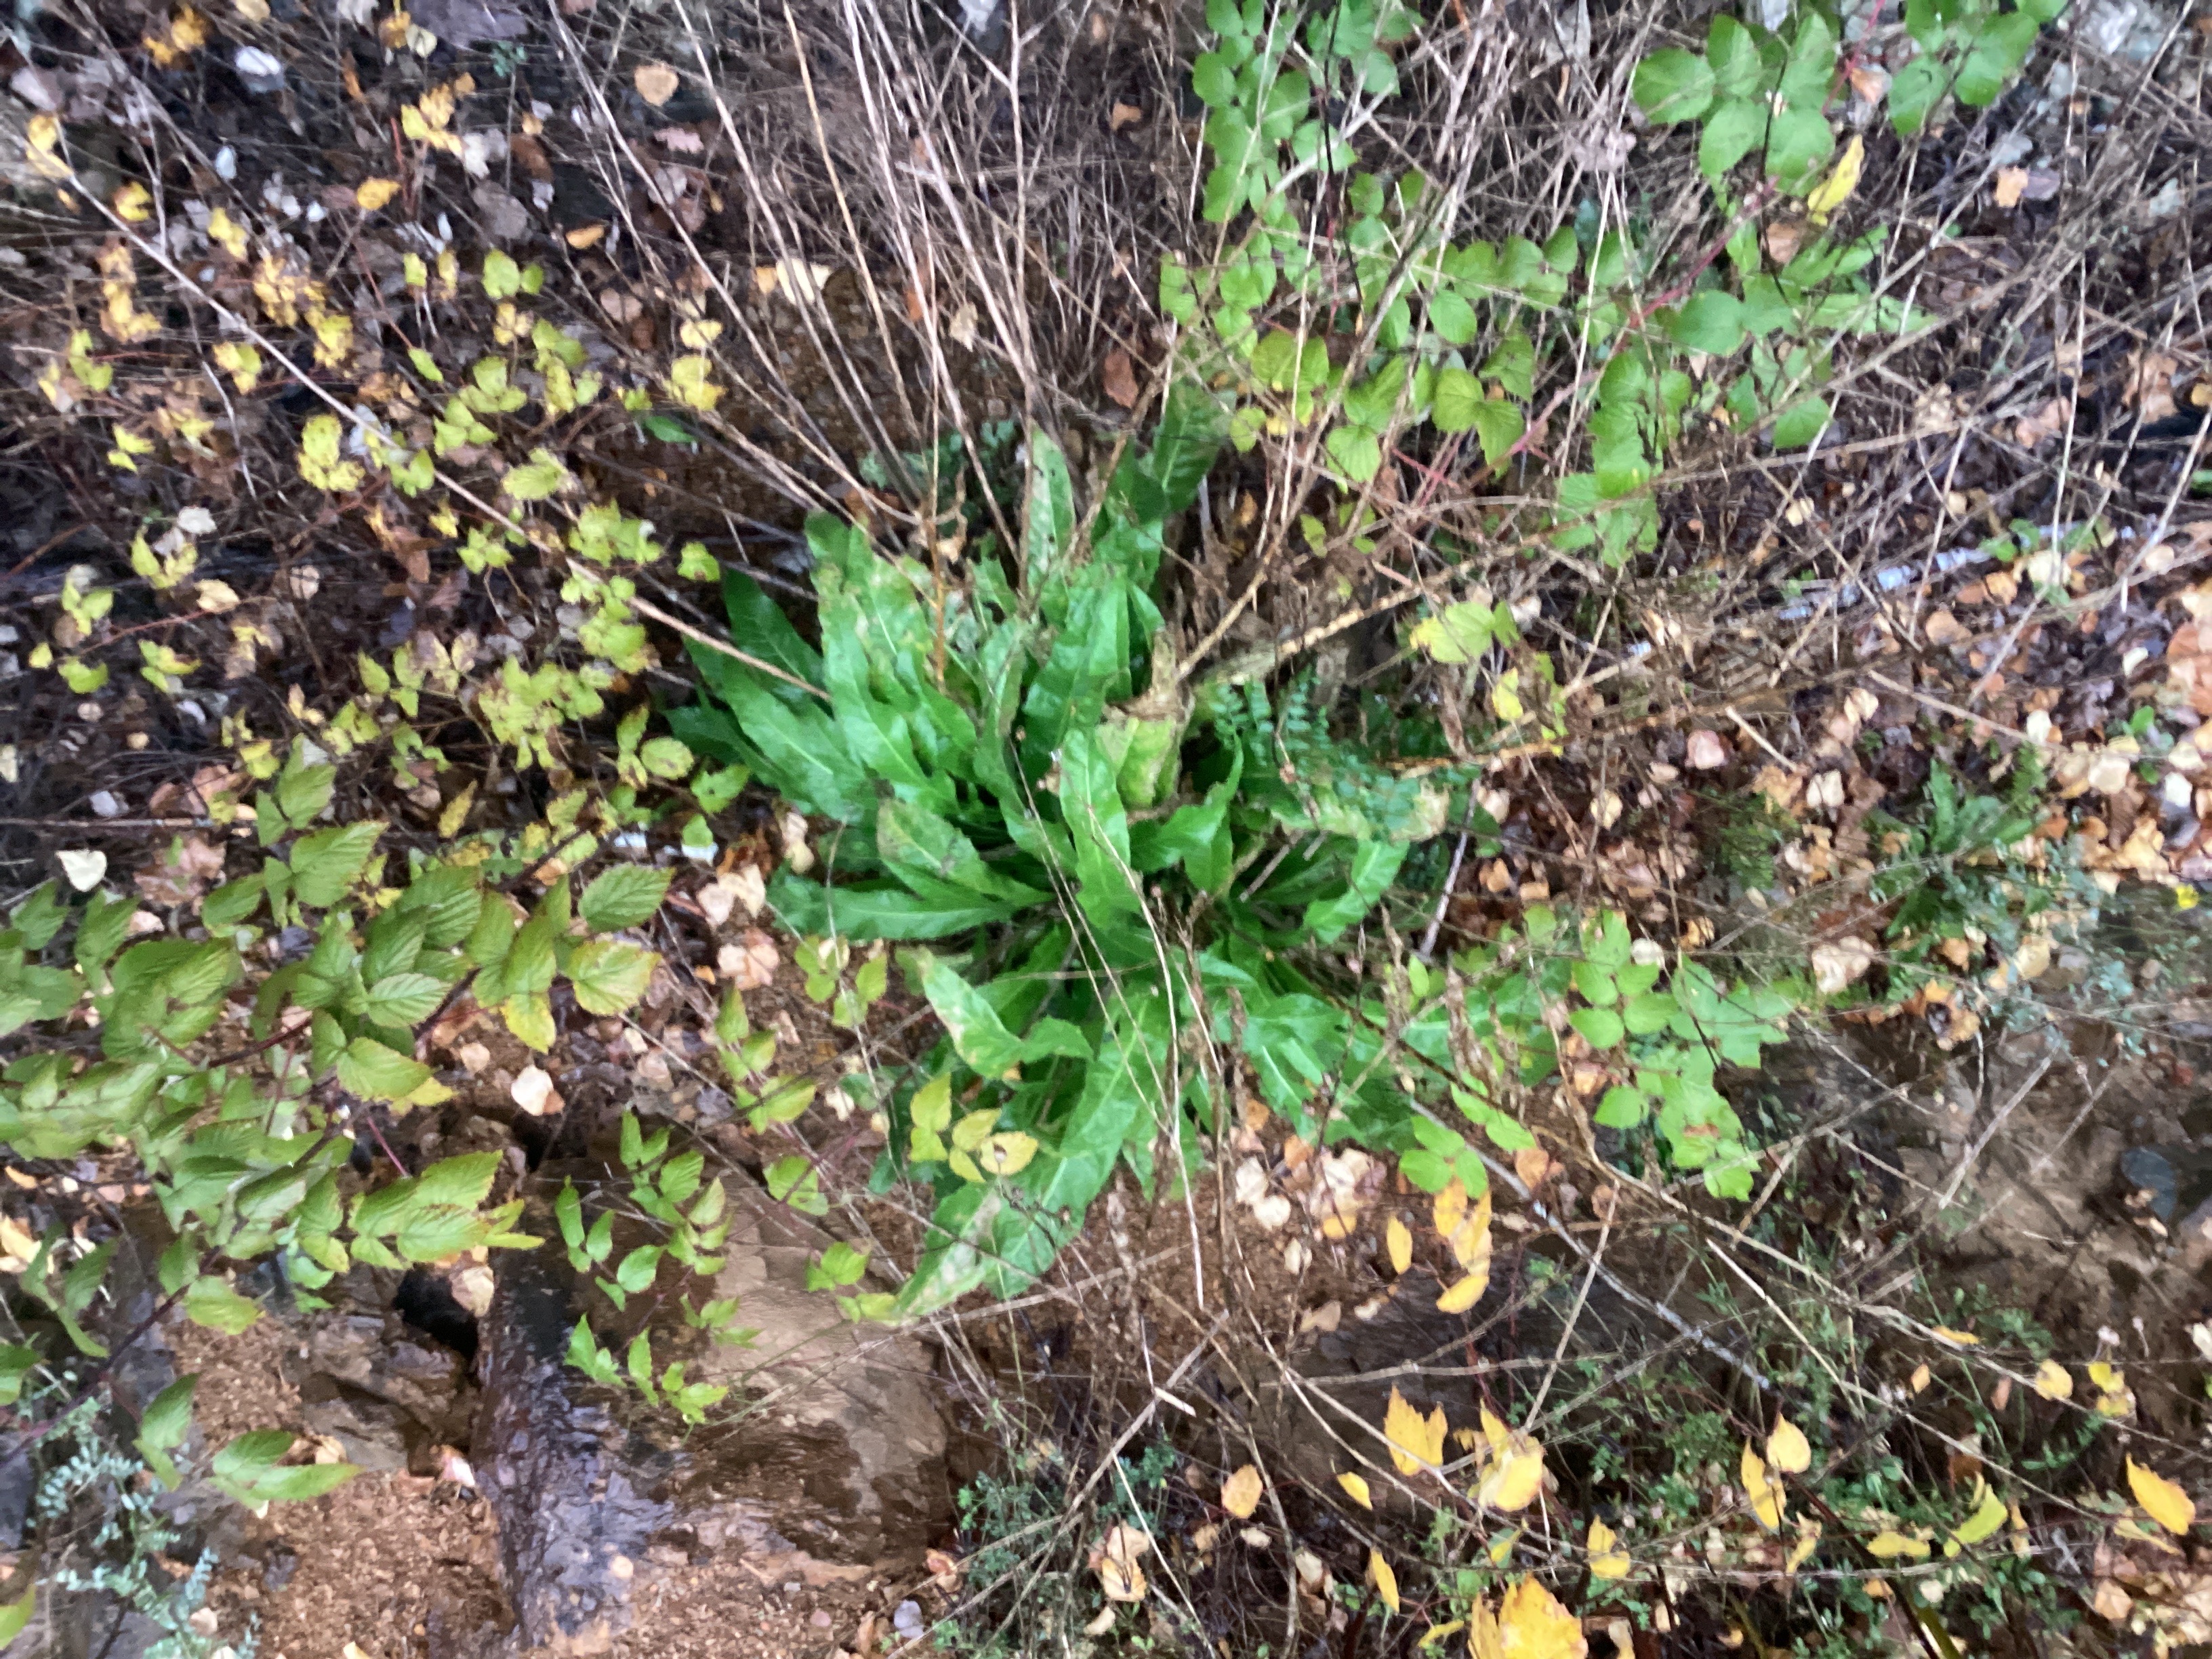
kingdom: Plantae
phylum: Tracheophyta
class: Magnoliopsida
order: Brassicales
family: Brassicaceae
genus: Bunias
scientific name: Bunias orientalis
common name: russekål
